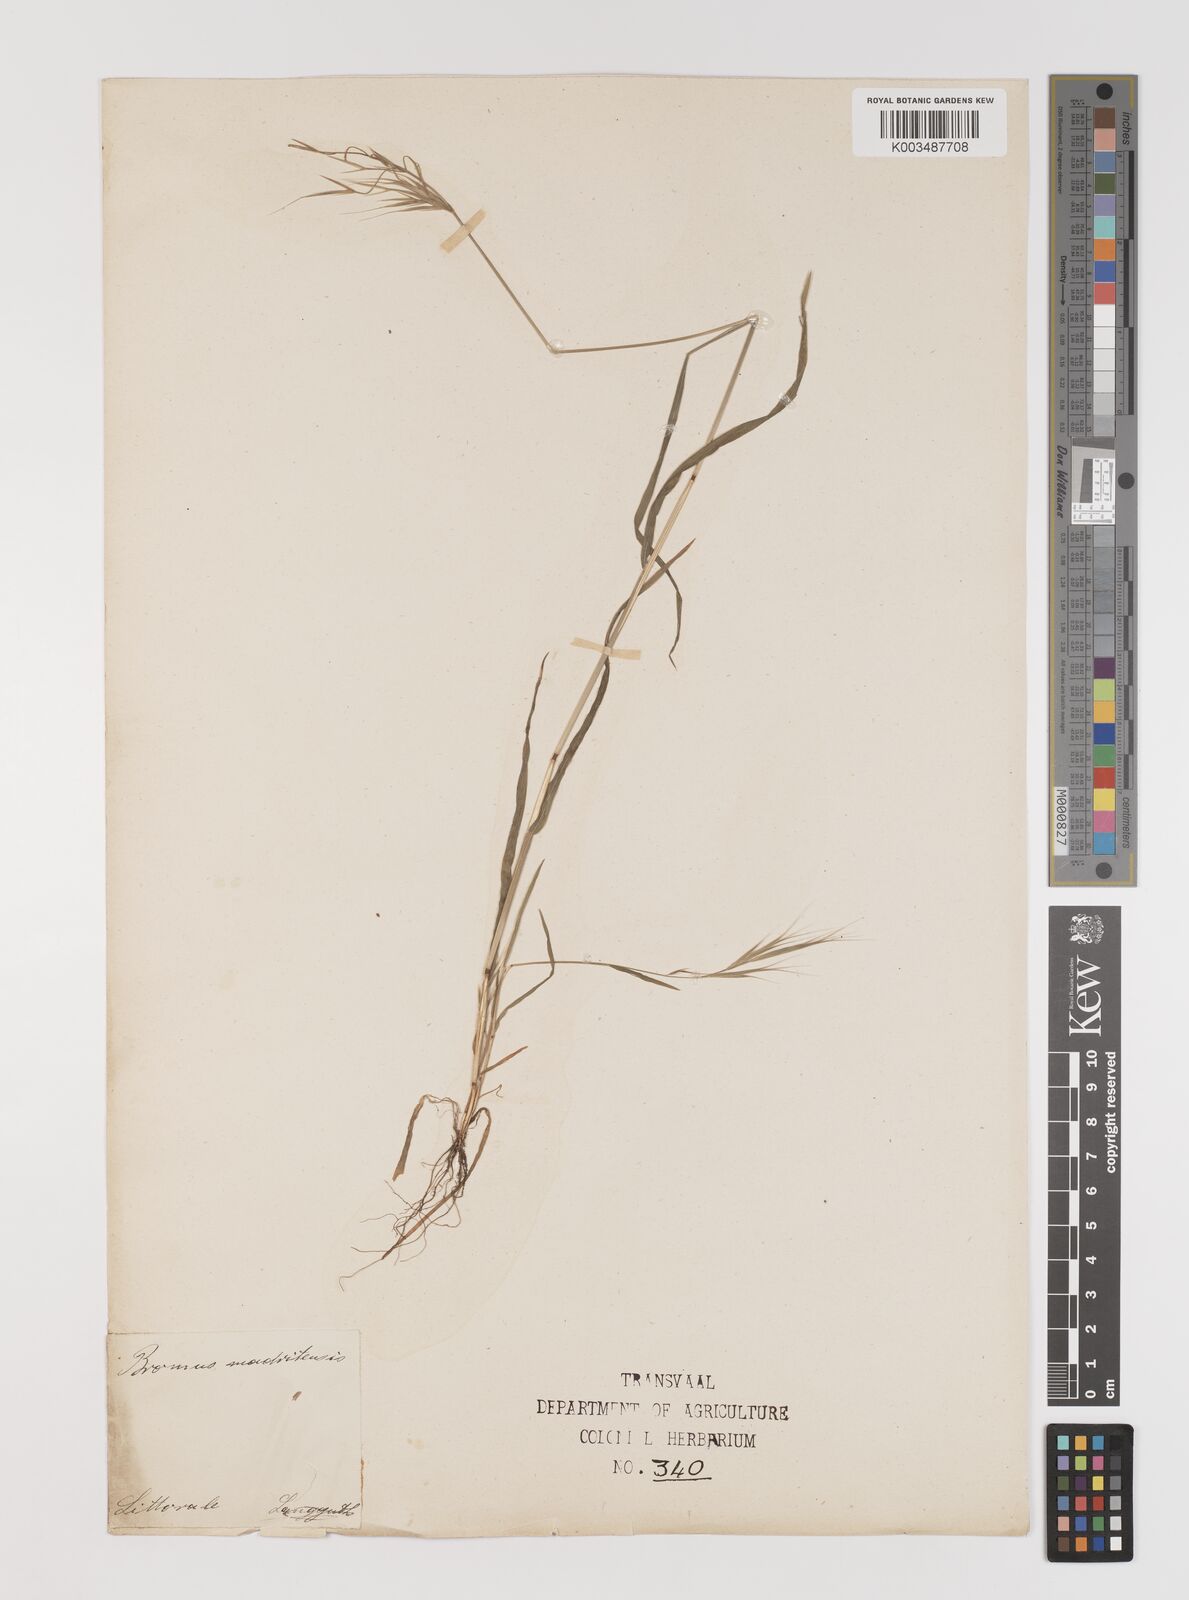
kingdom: Plantae
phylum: Tracheophyta
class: Liliopsida
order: Poales
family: Poaceae
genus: Bromus
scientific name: Bromus madritensis
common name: Compact brome
